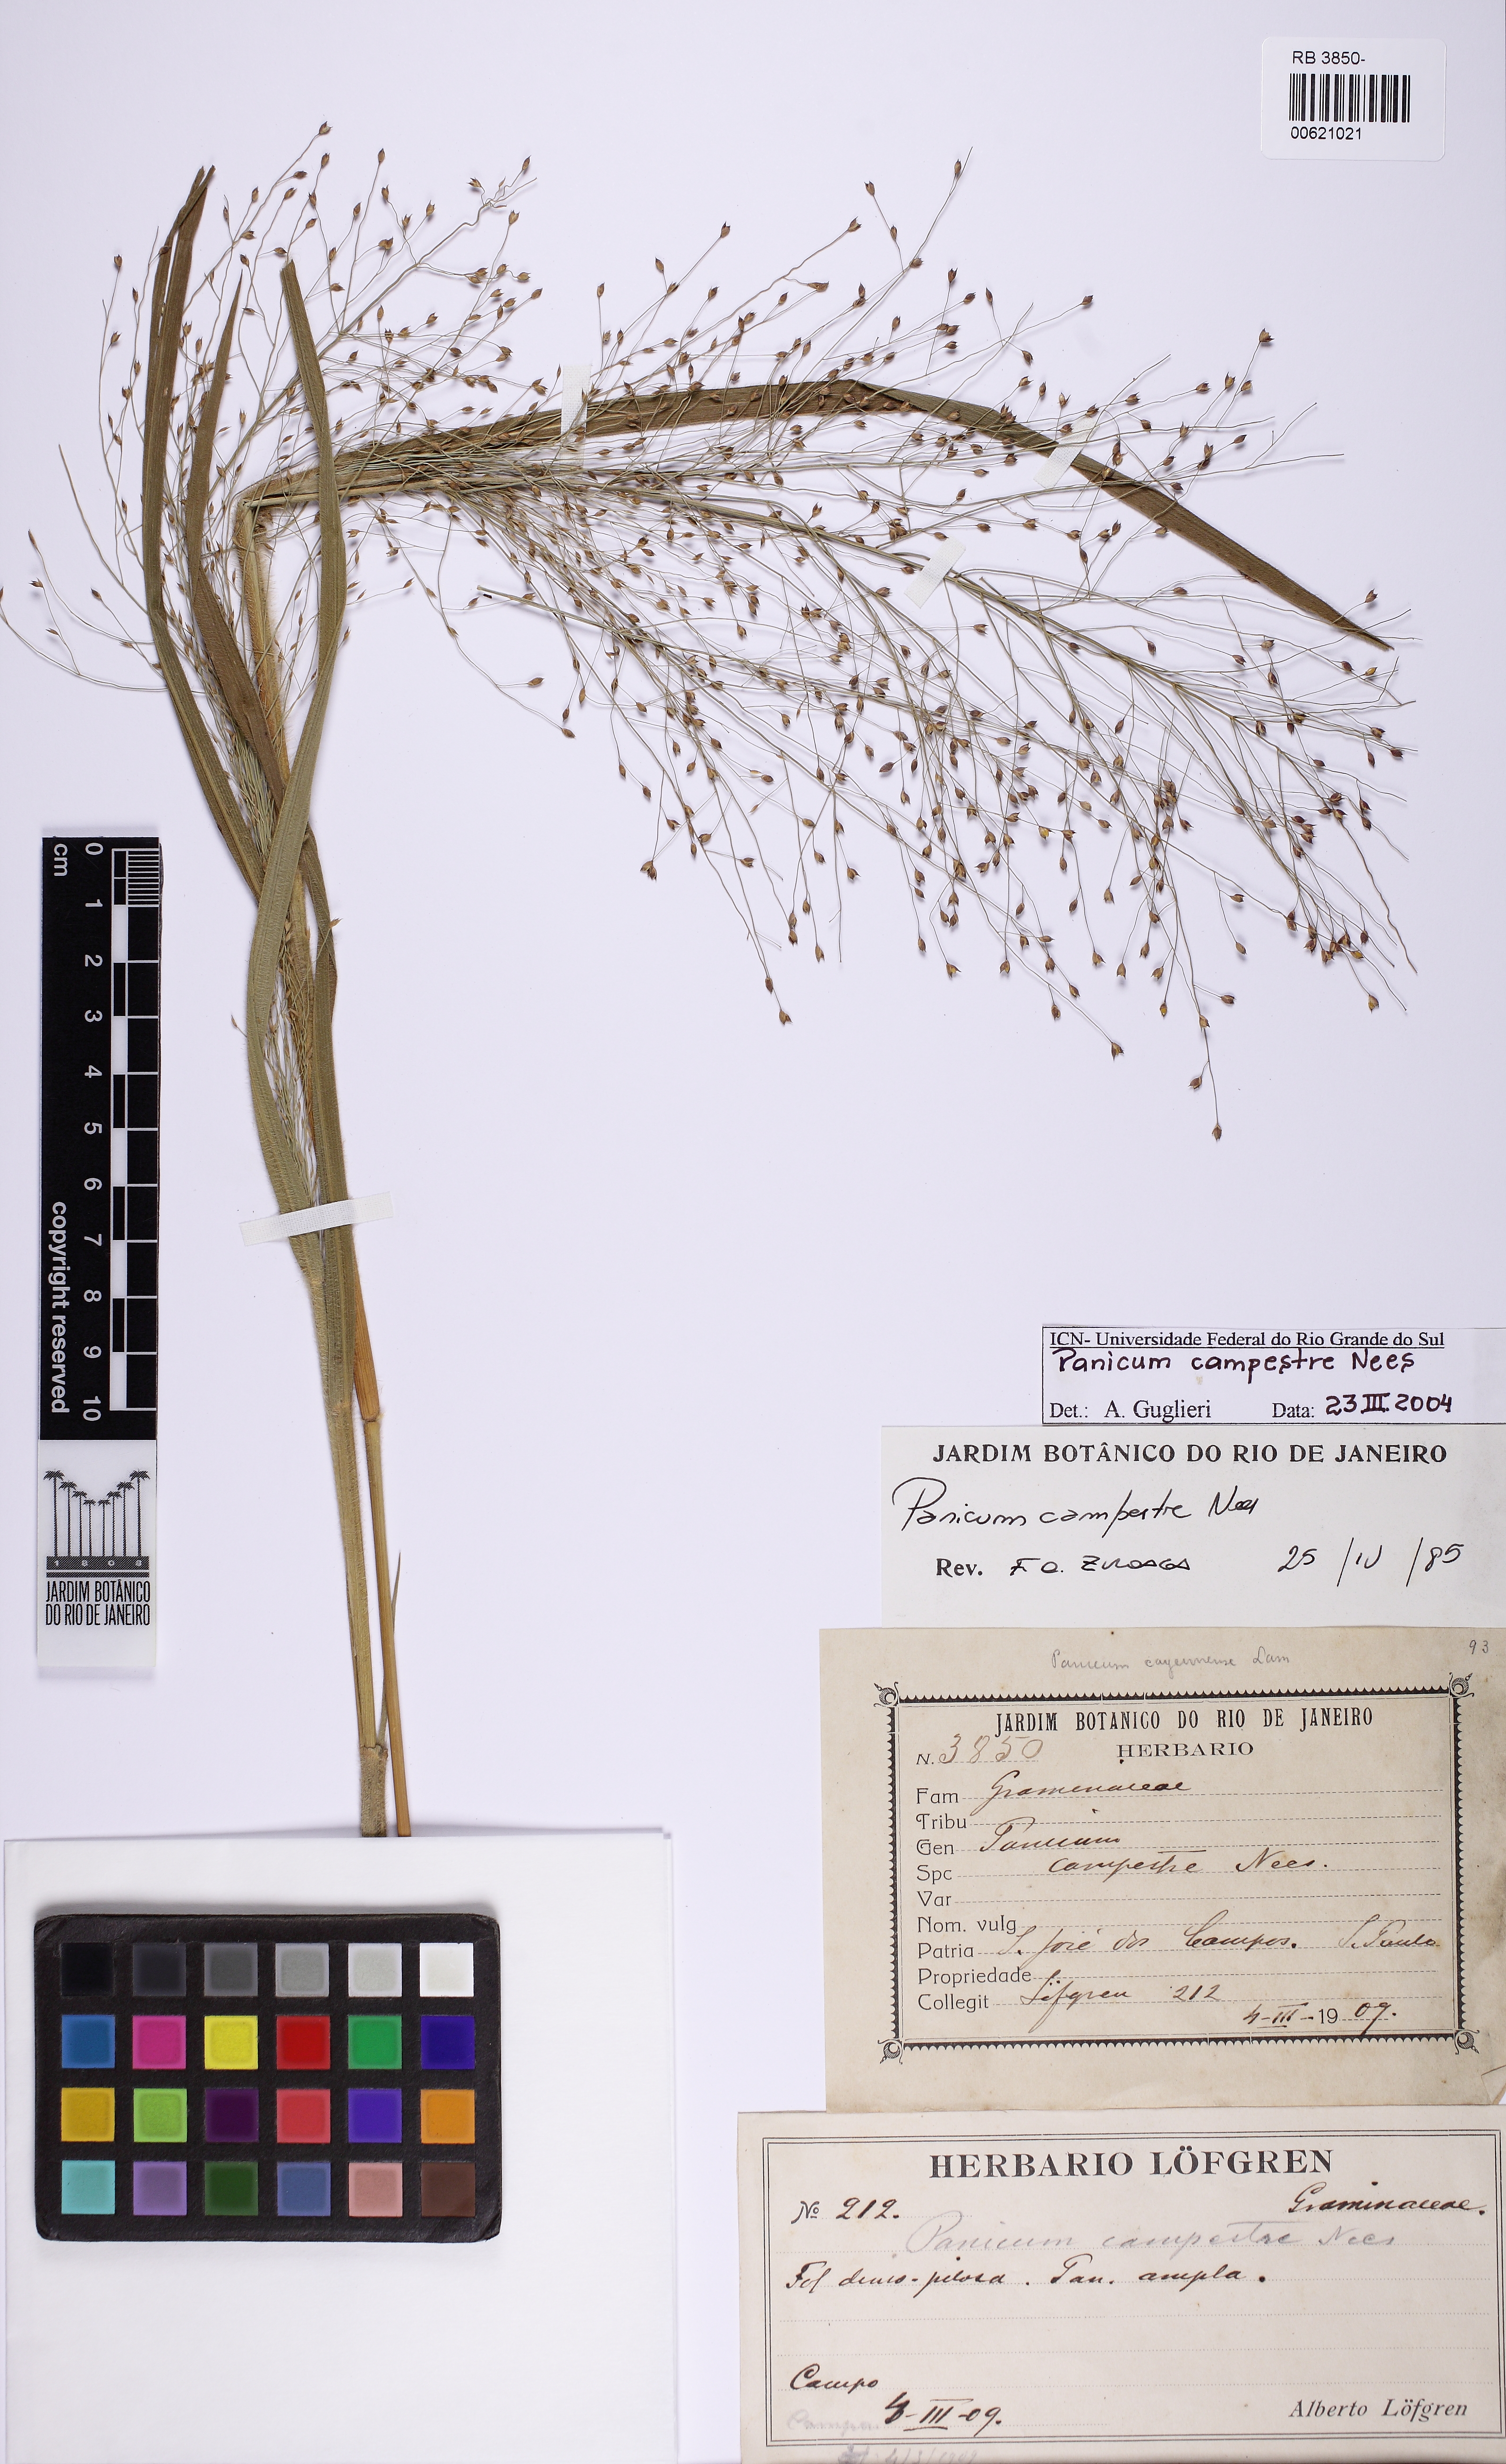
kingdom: Plantae
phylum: Tracheophyta
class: Liliopsida
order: Poales
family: Poaceae
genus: Panicum
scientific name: Panicum campestre
